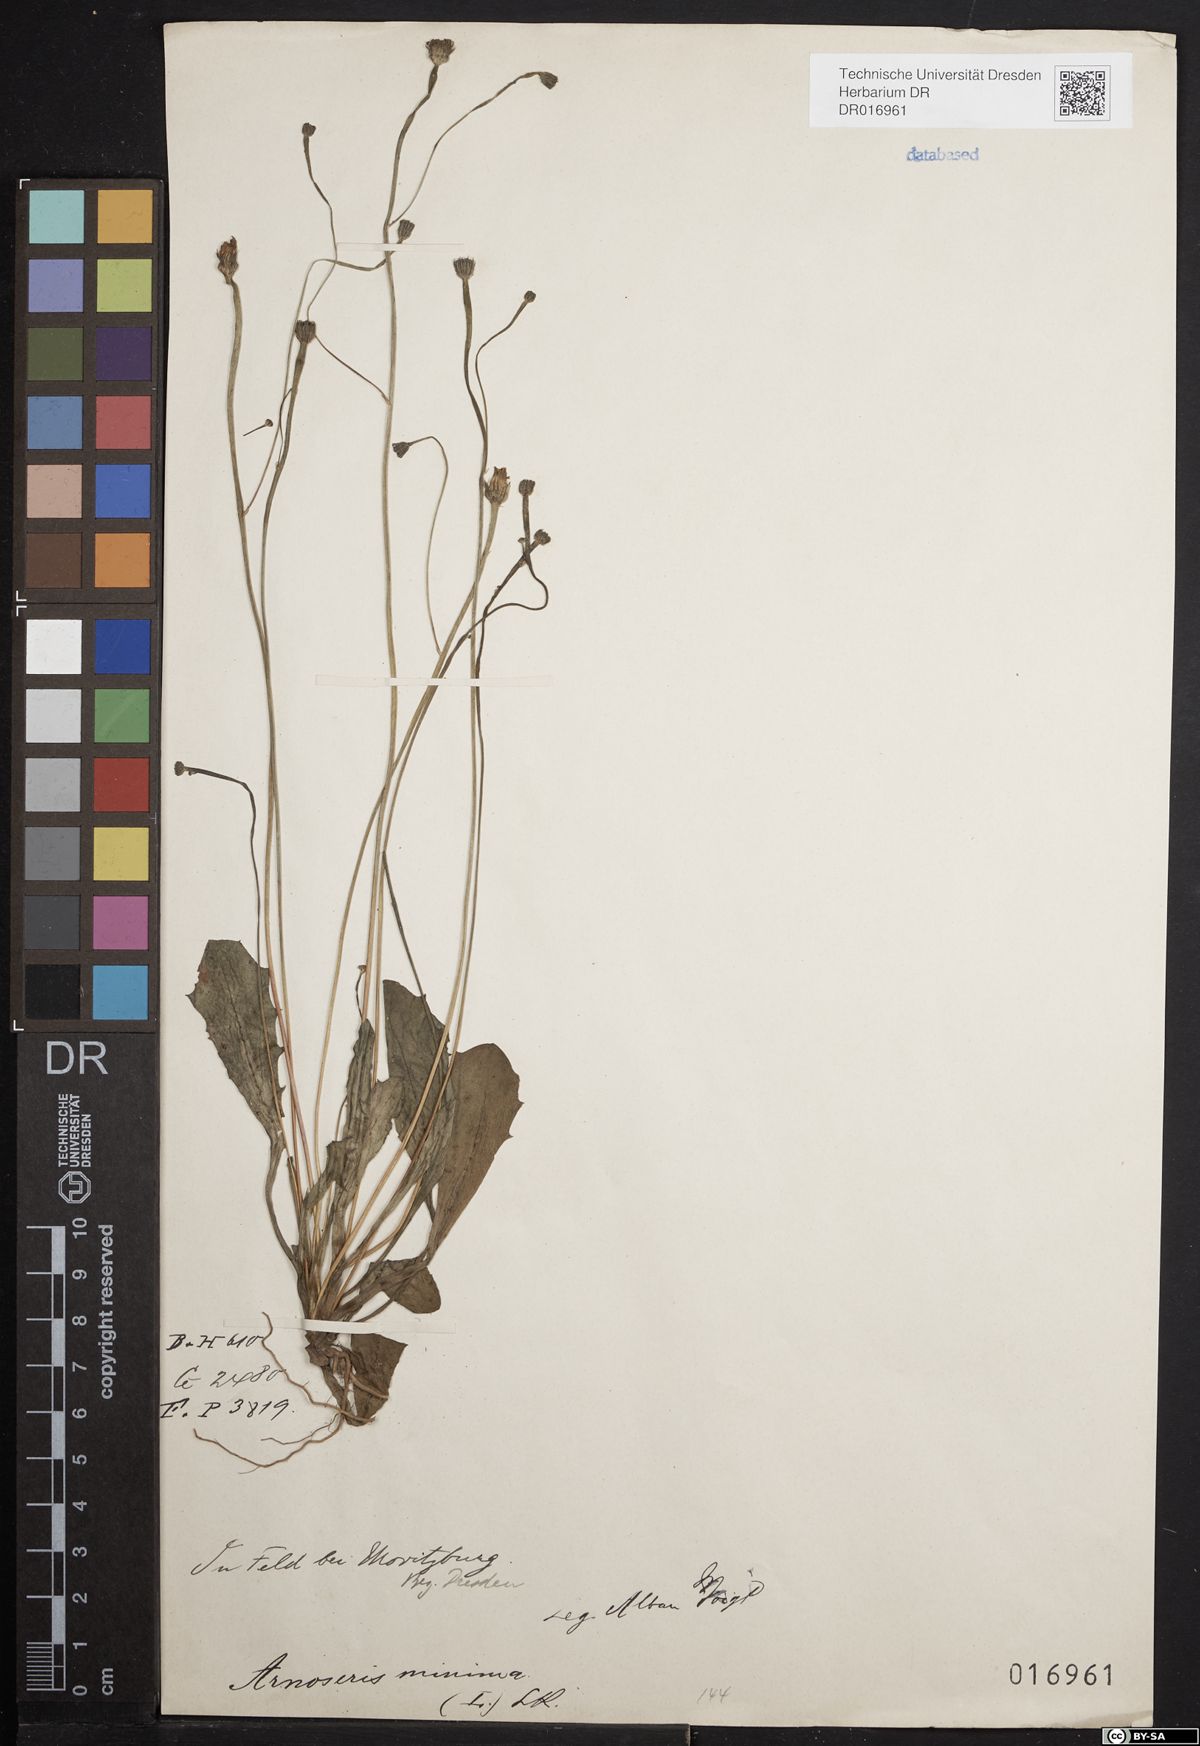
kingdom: Plantae
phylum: Tracheophyta
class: Magnoliopsida
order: Asterales
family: Asteraceae
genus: Arnoseris
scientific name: Arnoseris minima
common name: Lamb's succory
